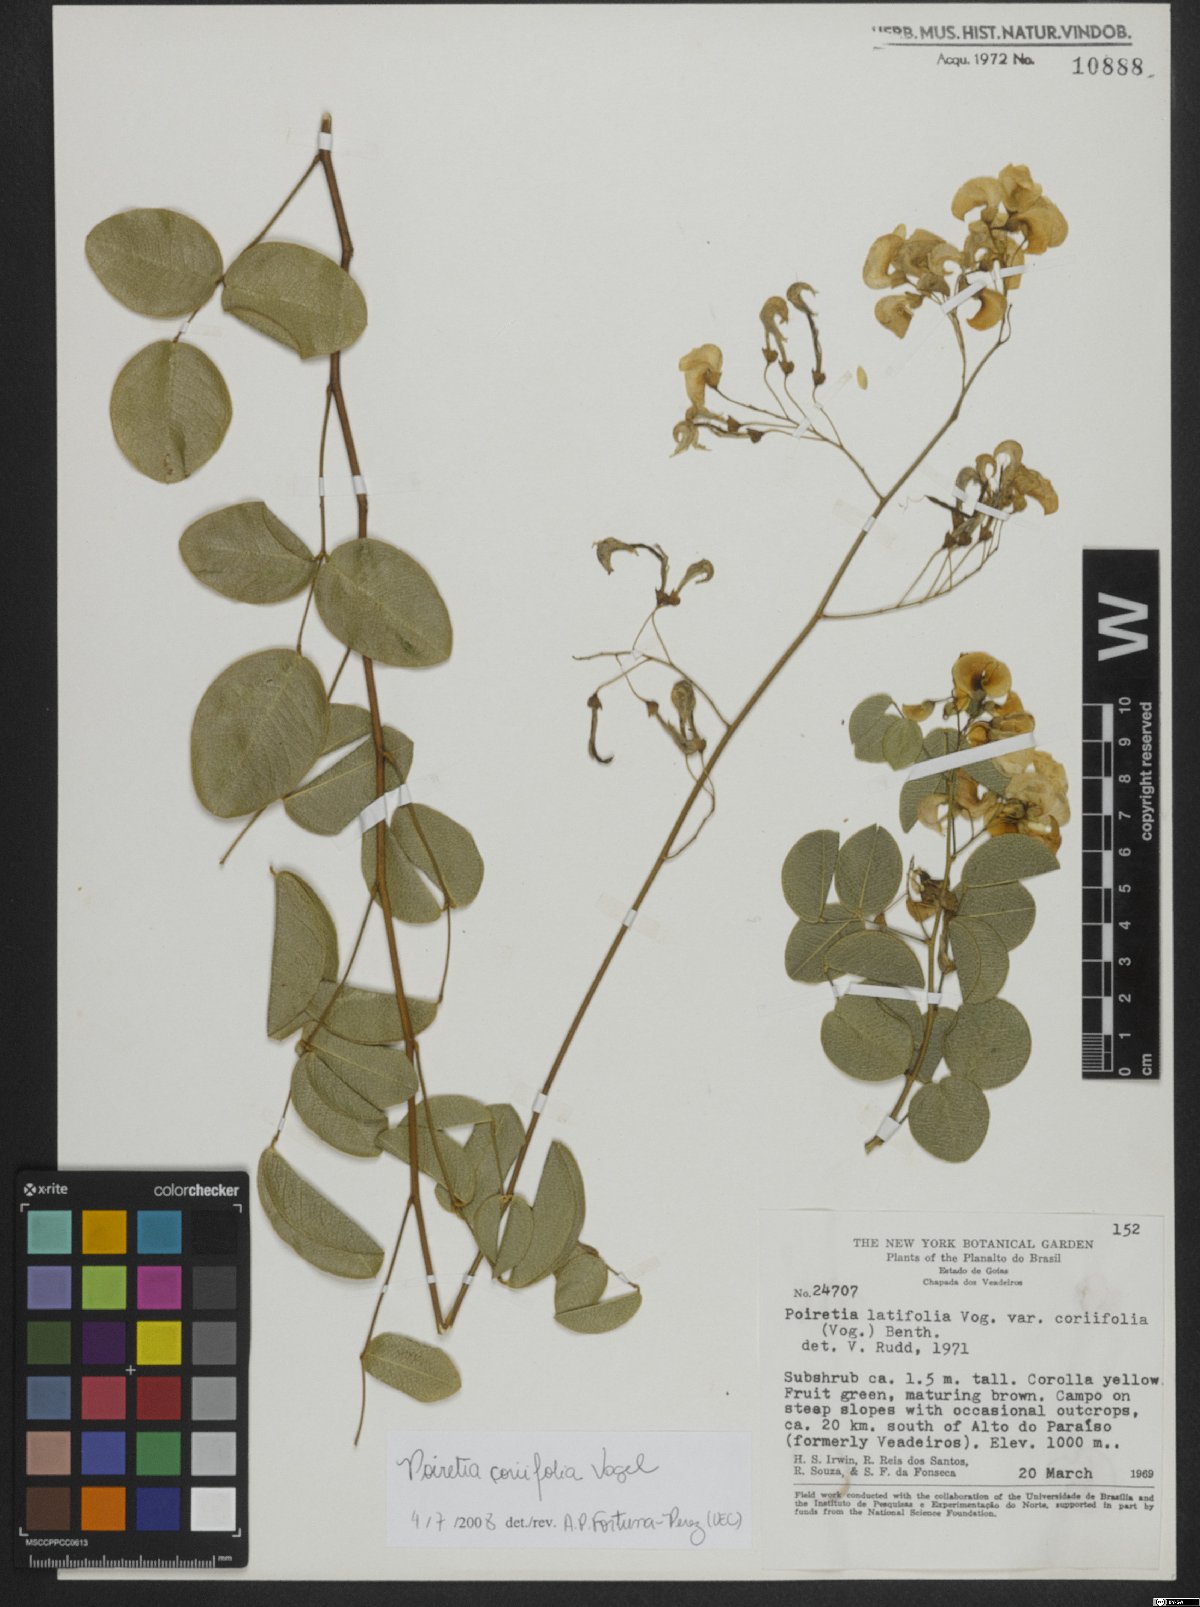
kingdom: Plantae
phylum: Tracheophyta
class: Magnoliopsida
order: Fabales
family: Fabaceae
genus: Poiretia
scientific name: Poiretia coriifolia
